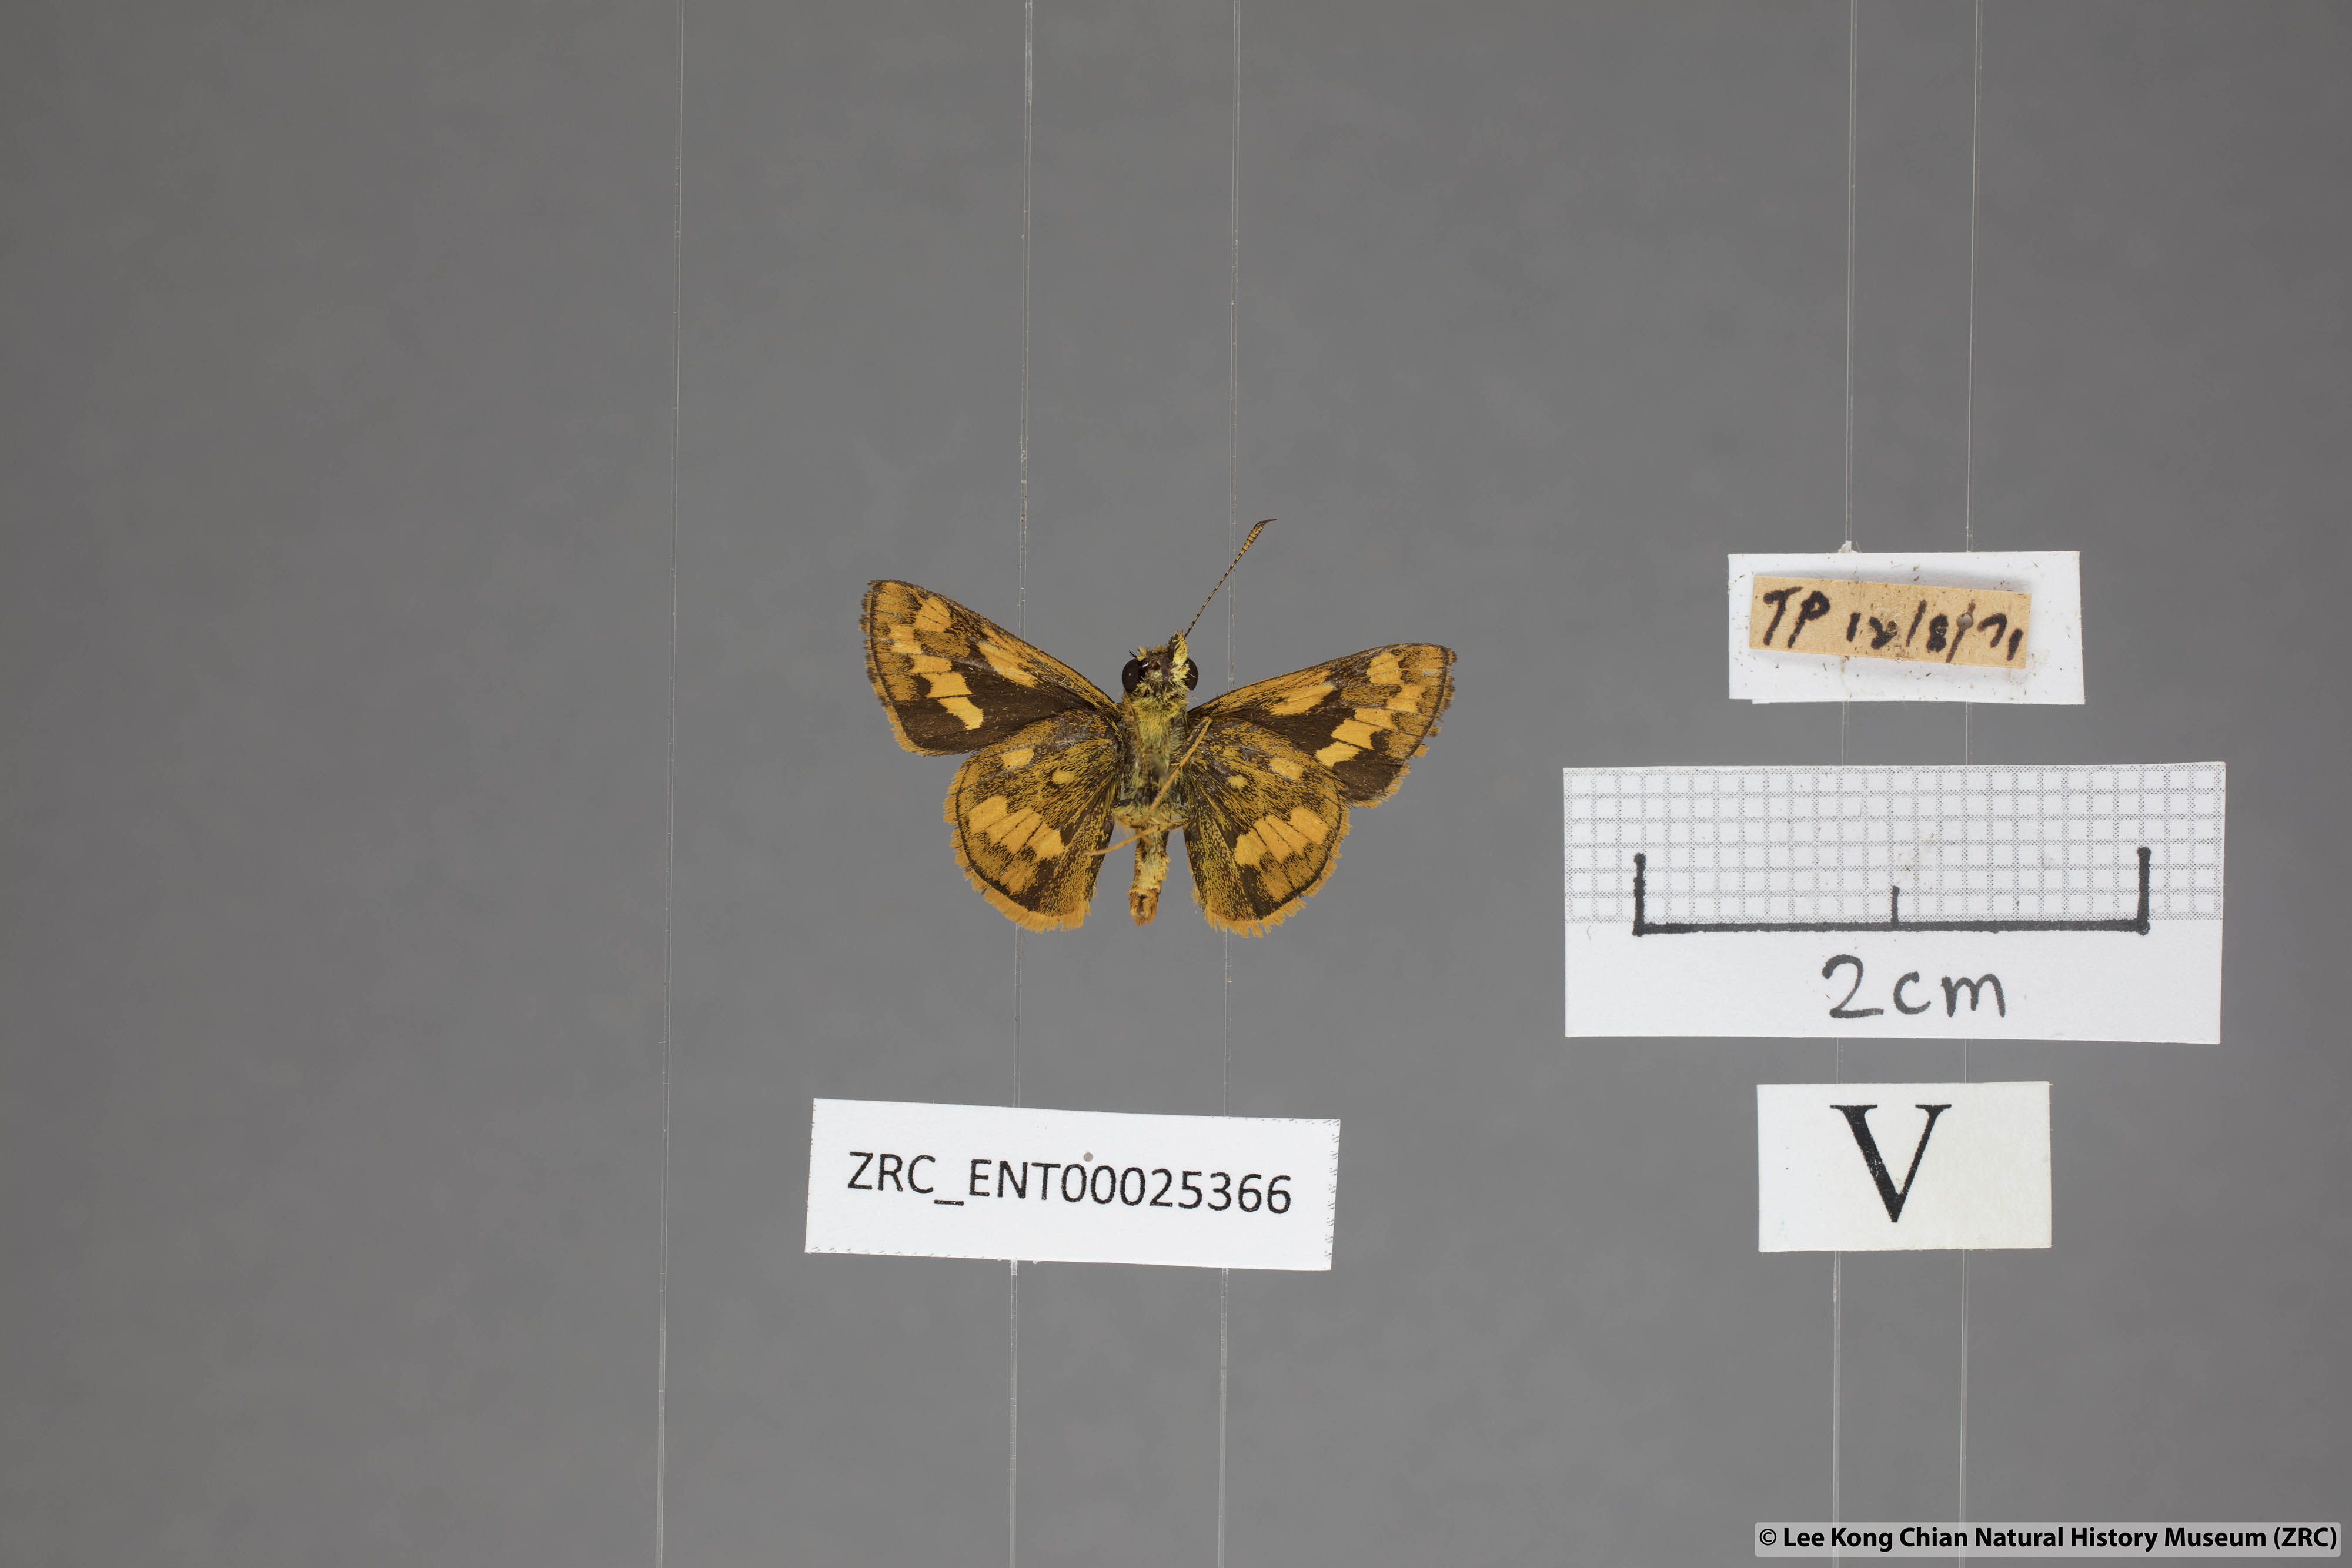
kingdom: Animalia
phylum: Arthropoda
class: Insecta
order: Lepidoptera
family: Hesperiidae
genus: Potanthus
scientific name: Potanthus ganda
